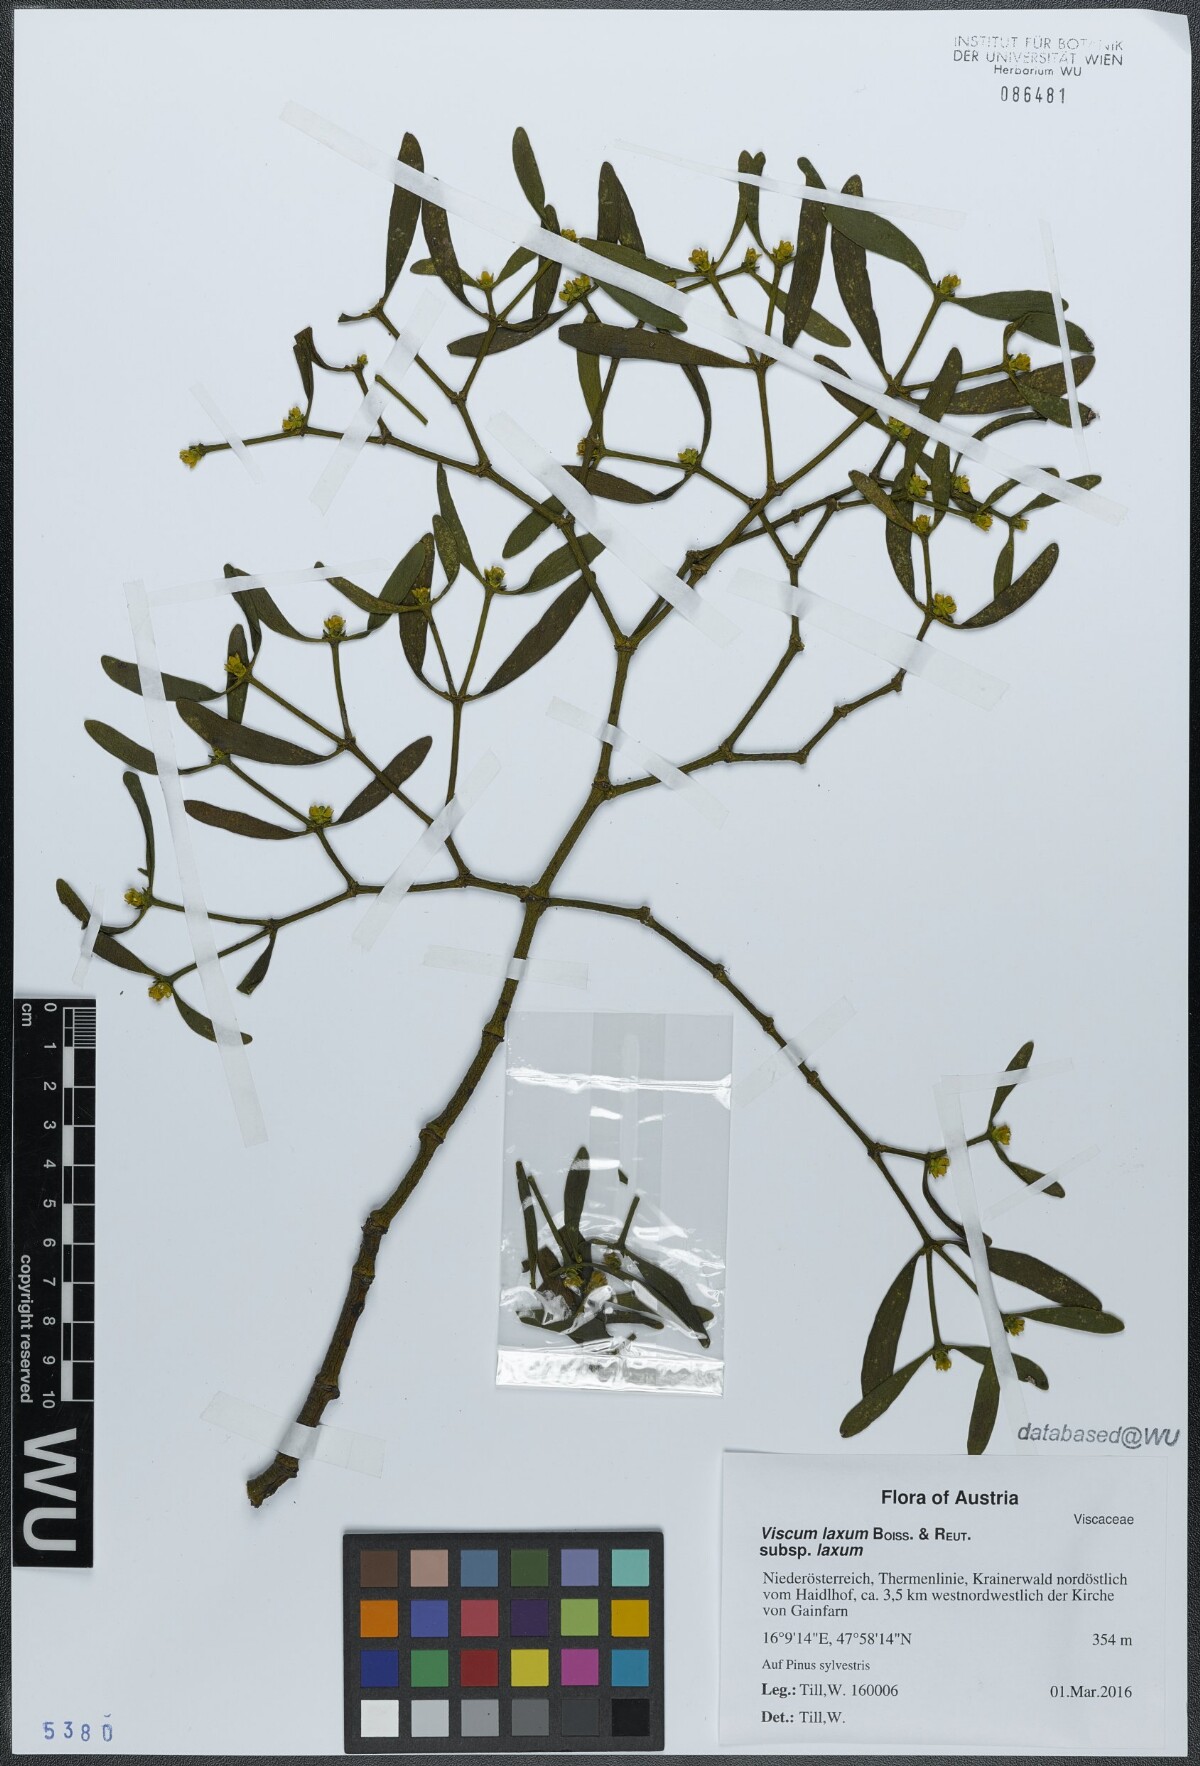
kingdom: Plantae
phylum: Tracheophyta
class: Magnoliopsida
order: Santalales
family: Viscaceae
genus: Viscum
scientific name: Viscum laxum
